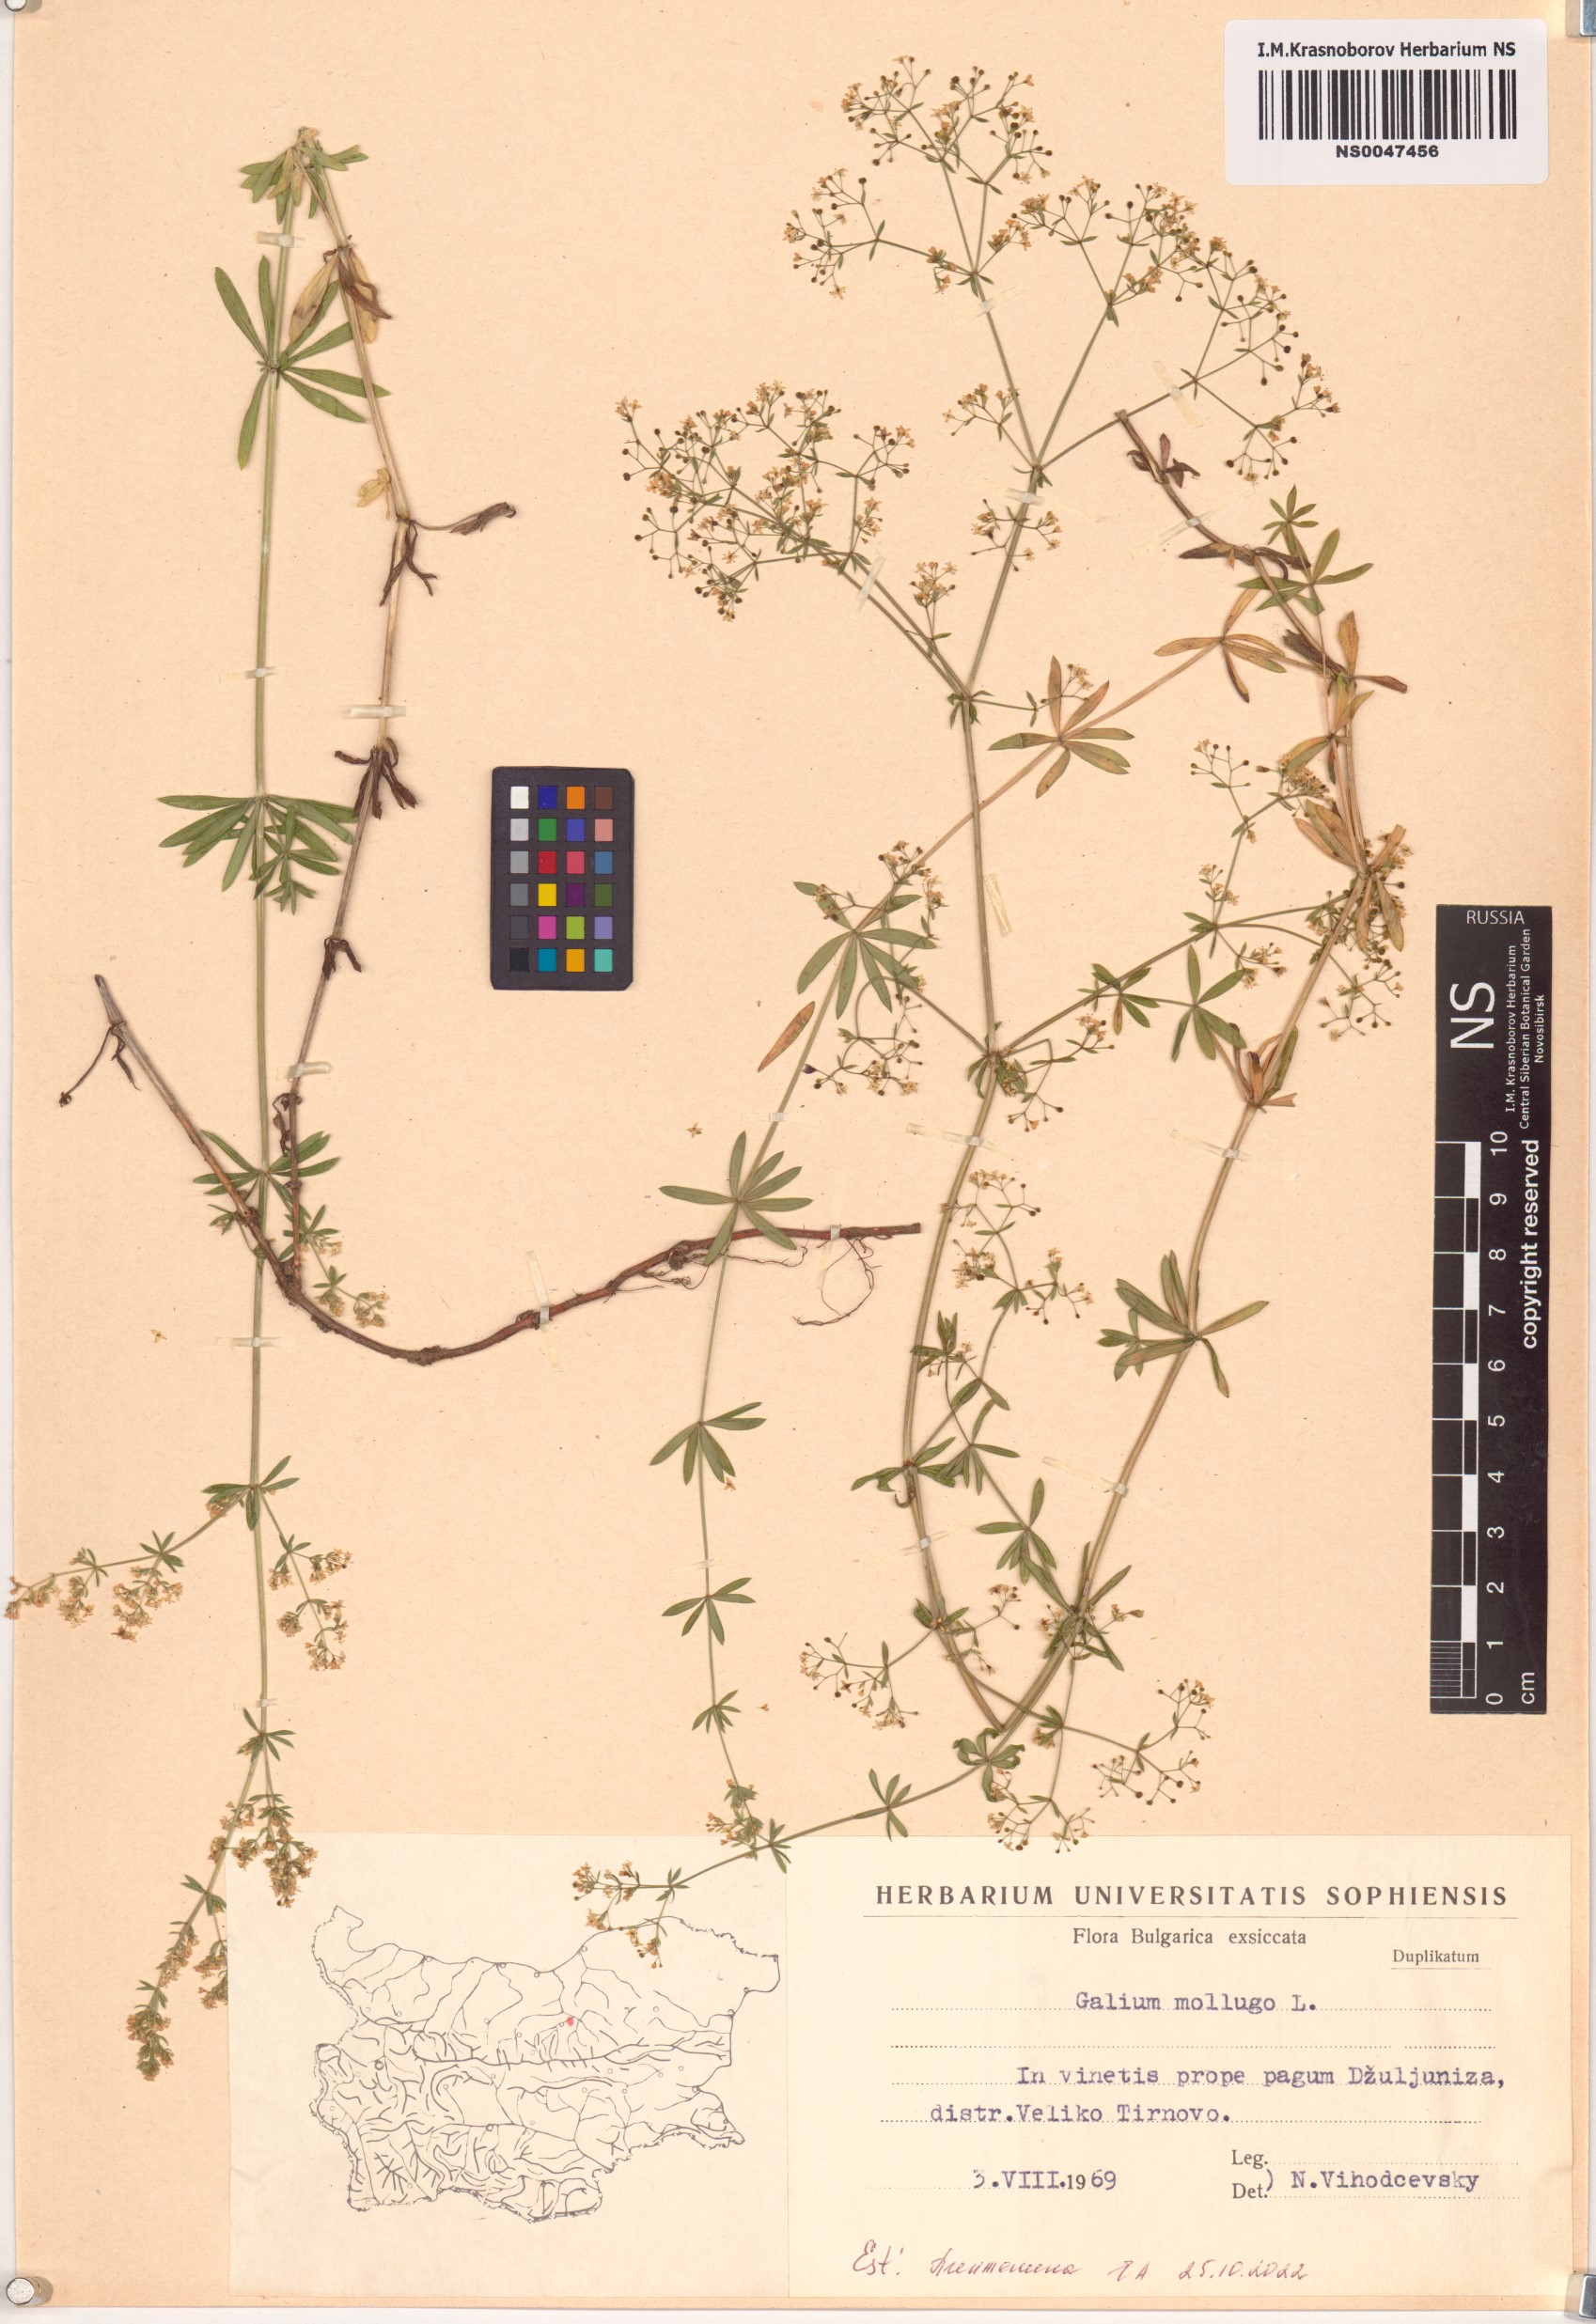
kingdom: Plantae
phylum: Tracheophyta
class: Magnoliopsida
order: Gentianales
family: Rubiaceae
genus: Galium
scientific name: Galium mollugo
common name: Hedge bedstraw
